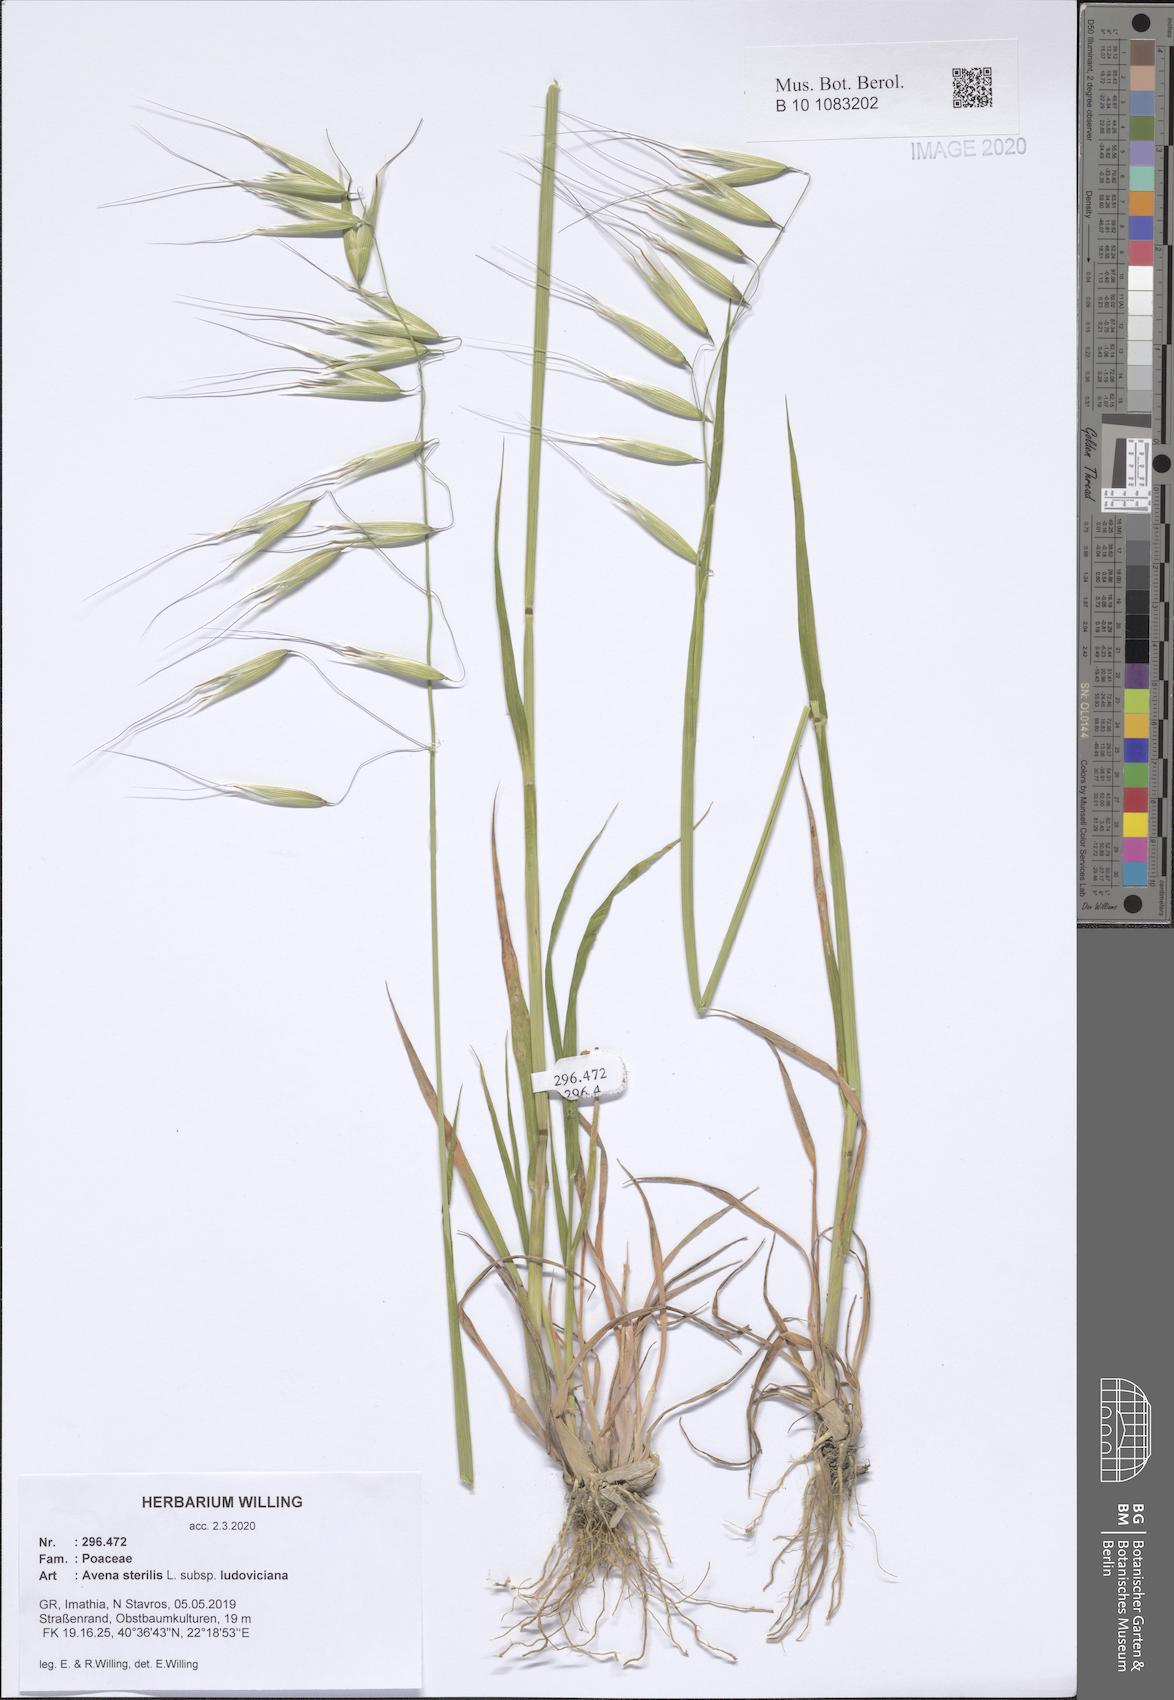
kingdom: Plantae
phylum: Tracheophyta
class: Liliopsida
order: Poales
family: Poaceae
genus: Avena
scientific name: Avena sterilis
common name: Animated oat
